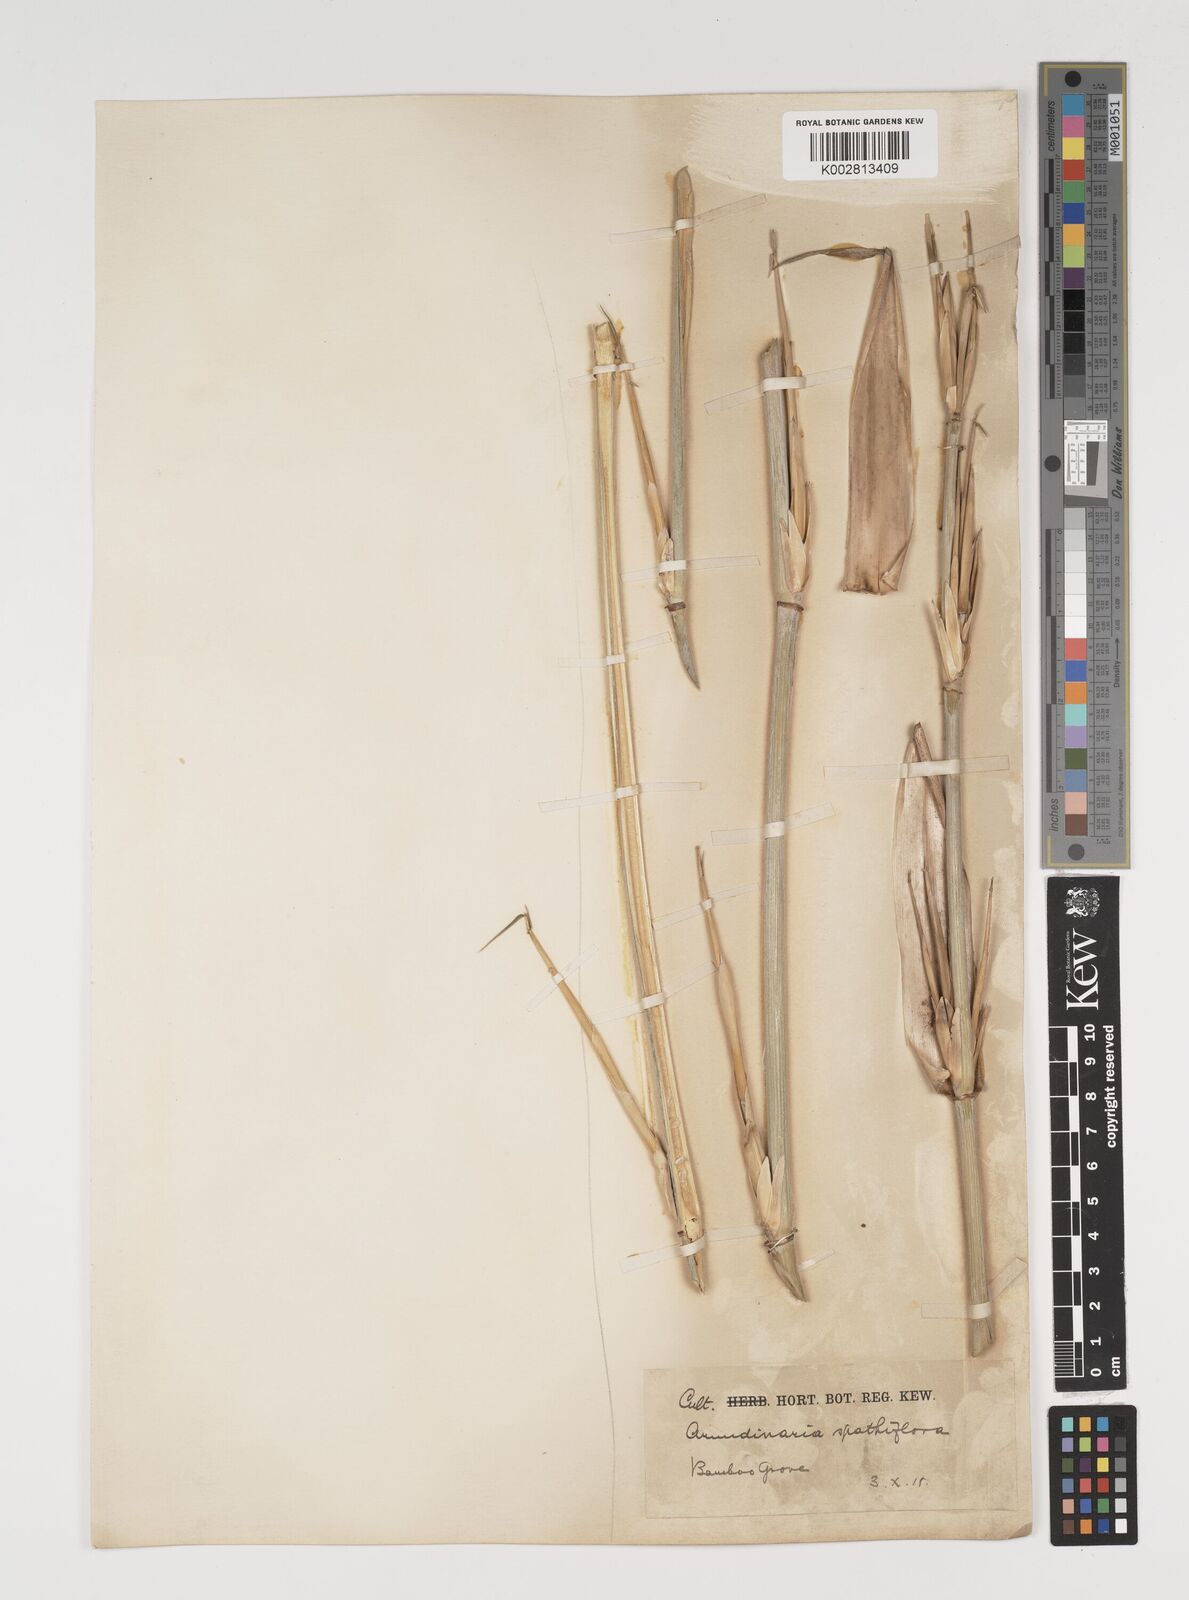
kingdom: Plantae
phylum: Tracheophyta
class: Liliopsida
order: Poales
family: Poaceae
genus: Thamnocalamus
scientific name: Thamnocalamus spathiflorus
